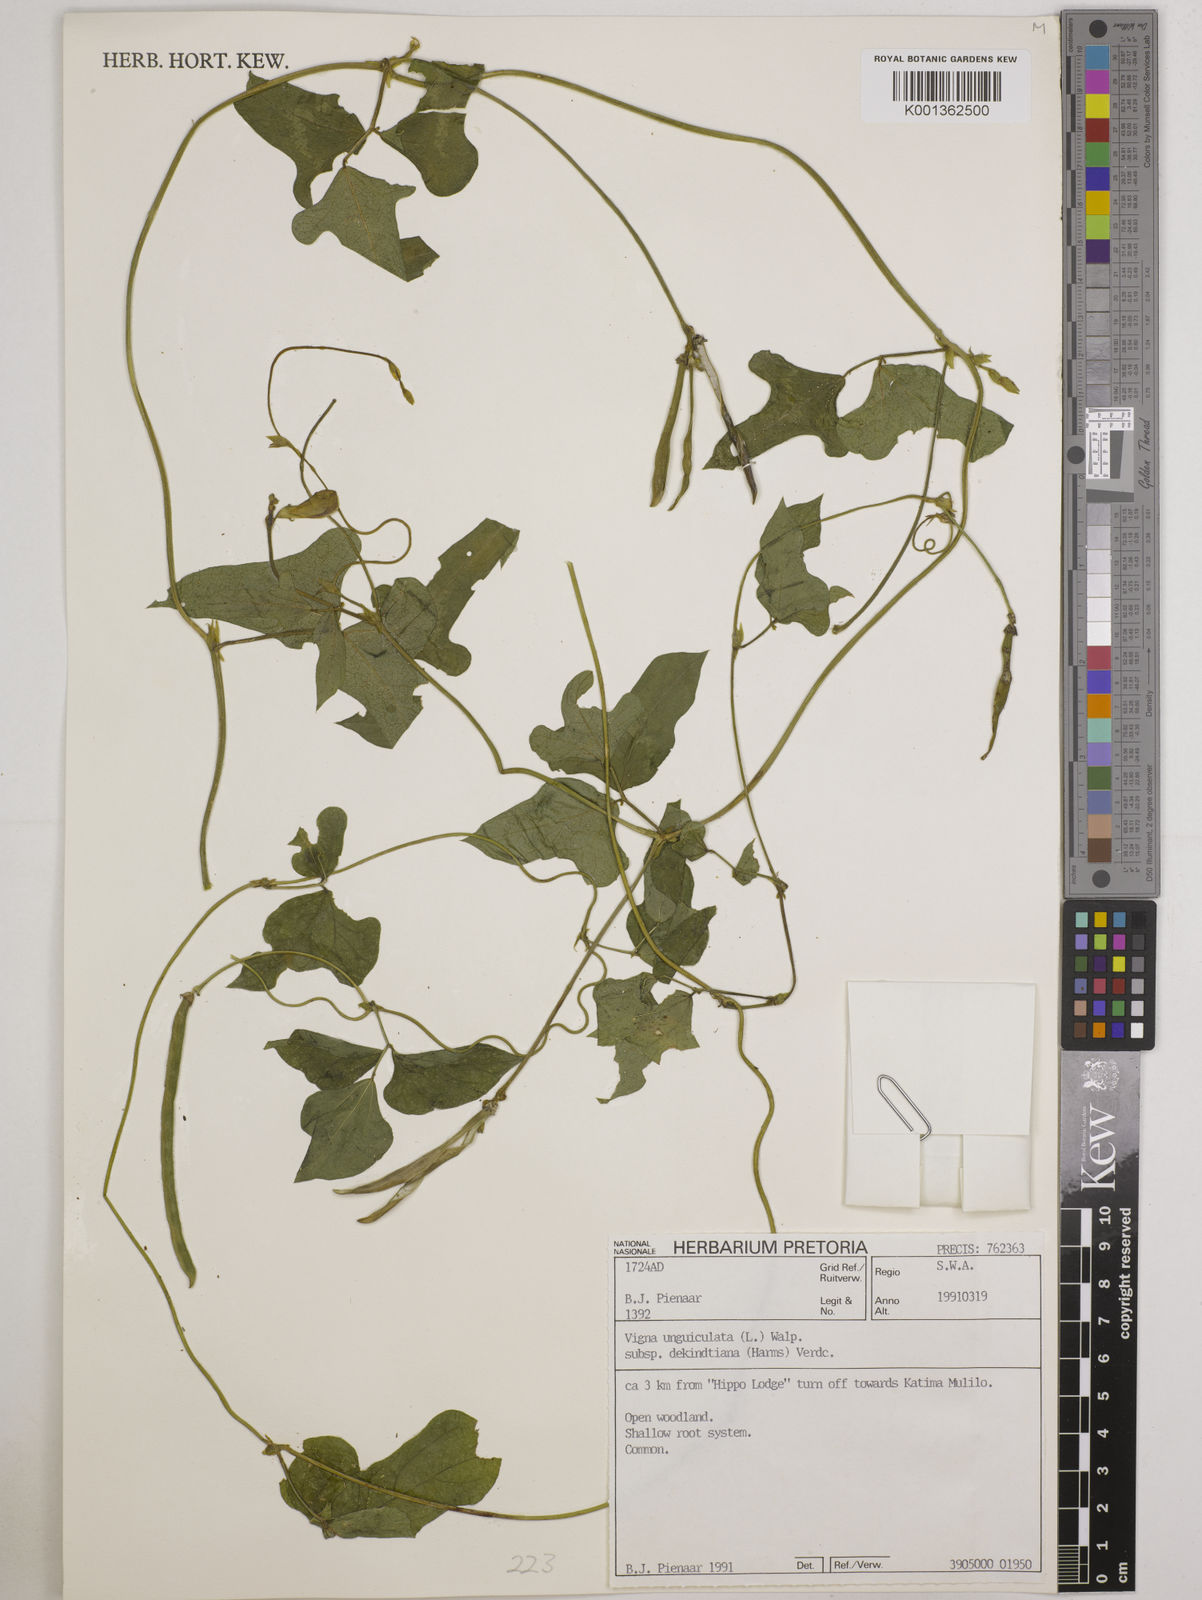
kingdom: Plantae
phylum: Tracheophyta
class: Magnoliopsida
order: Fabales
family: Fabaceae
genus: Vigna
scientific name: Vigna
